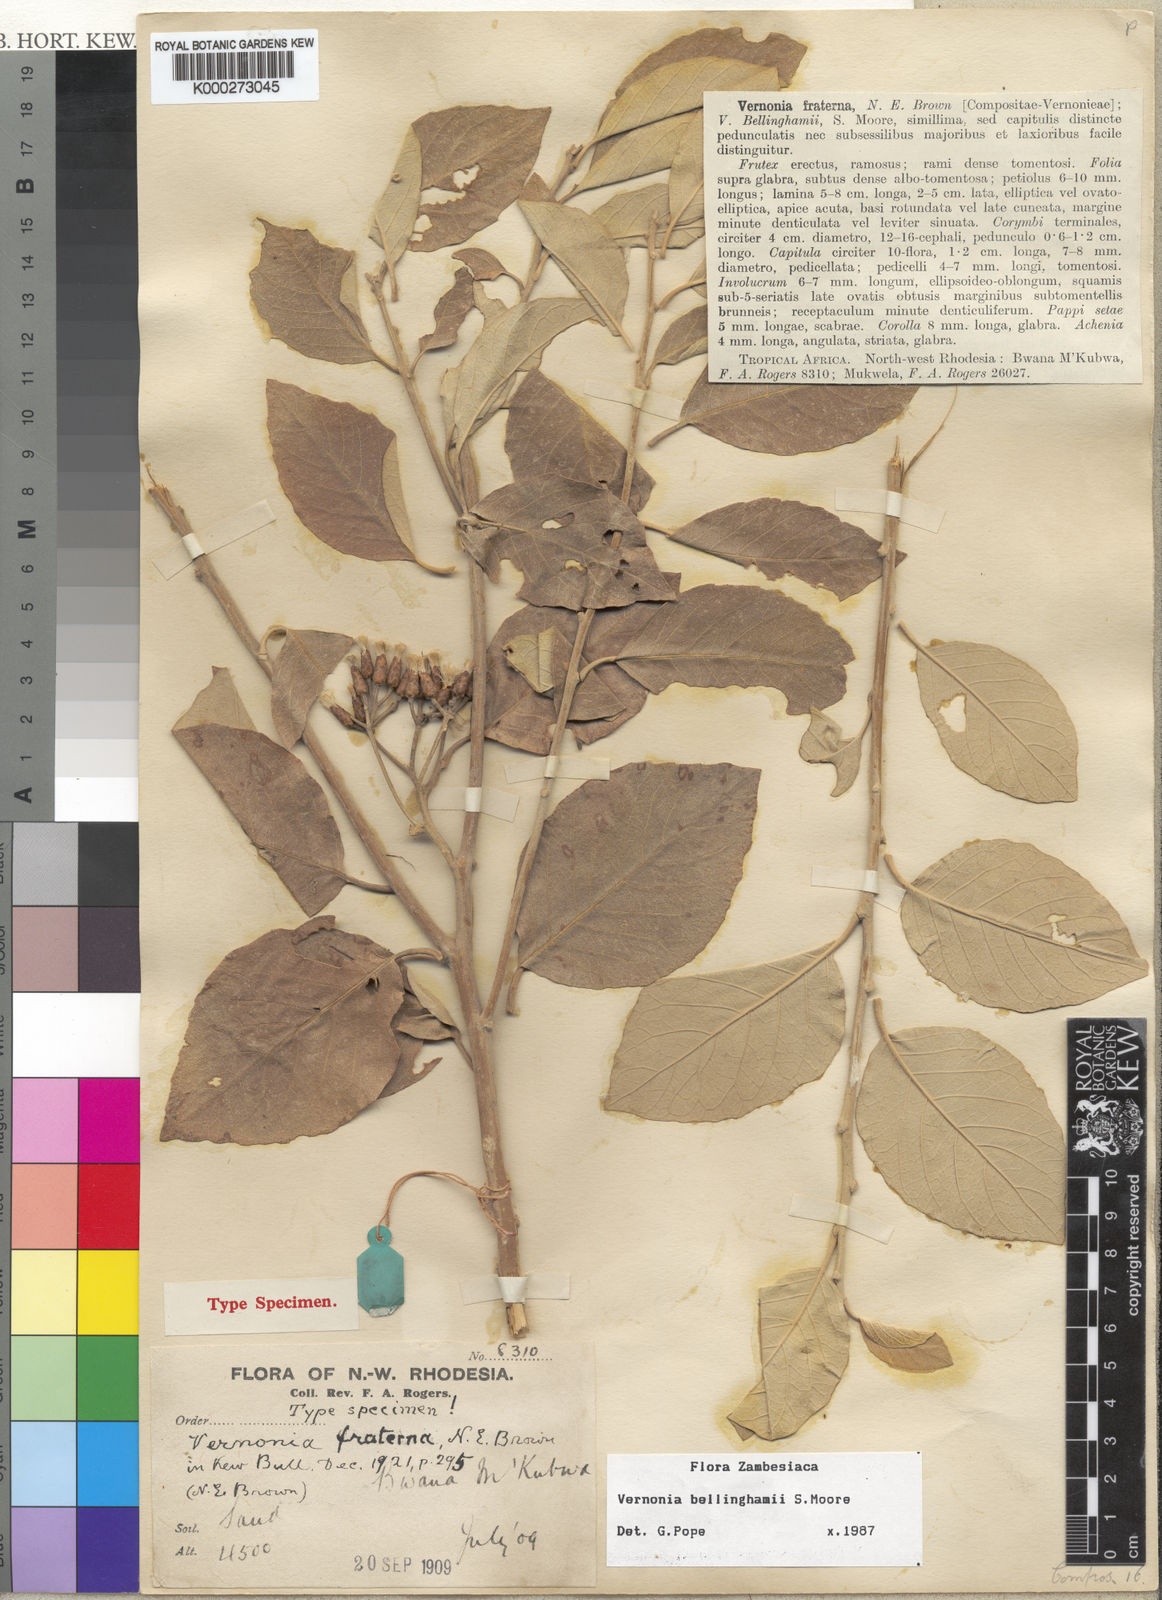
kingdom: Plantae
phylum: Tracheophyta
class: Magnoliopsida
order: Asterales
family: Asteraceae
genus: Gymnanthemum
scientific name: Gymnanthemum bellinghamii
